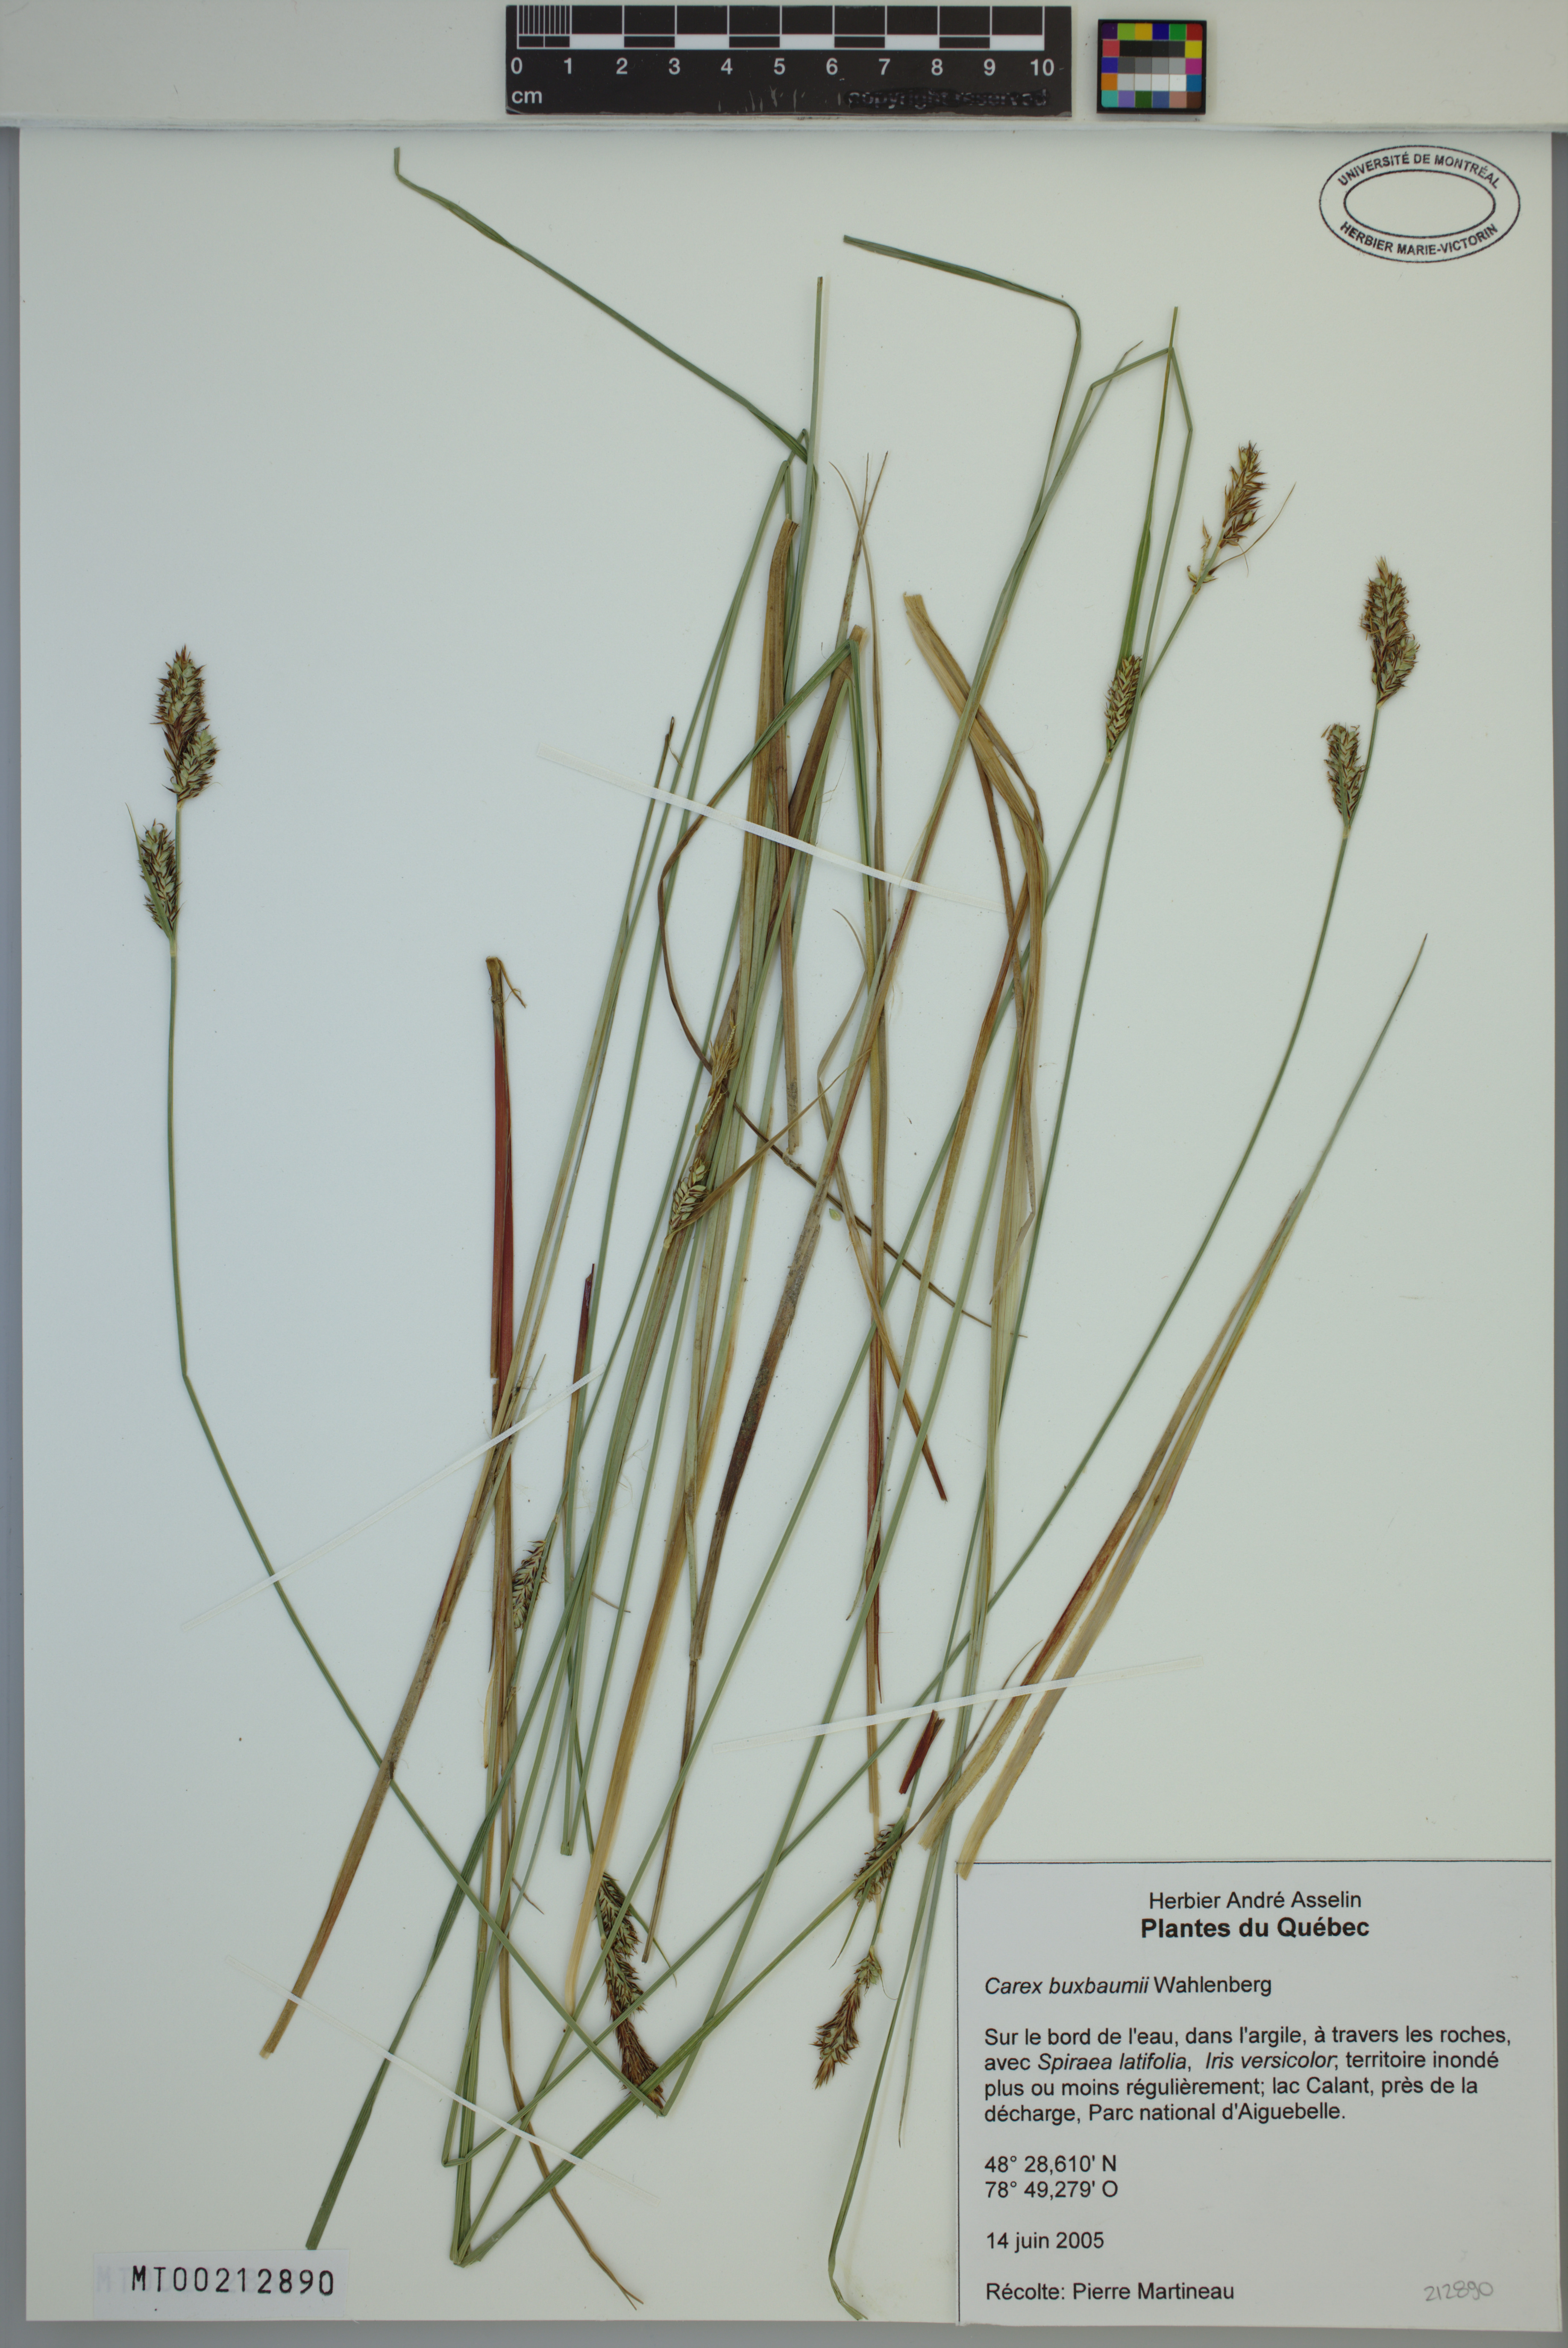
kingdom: Plantae
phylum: Tracheophyta
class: Liliopsida
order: Poales
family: Cyperaceae
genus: Carex
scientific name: Carex buxbaumii
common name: Club sedge
